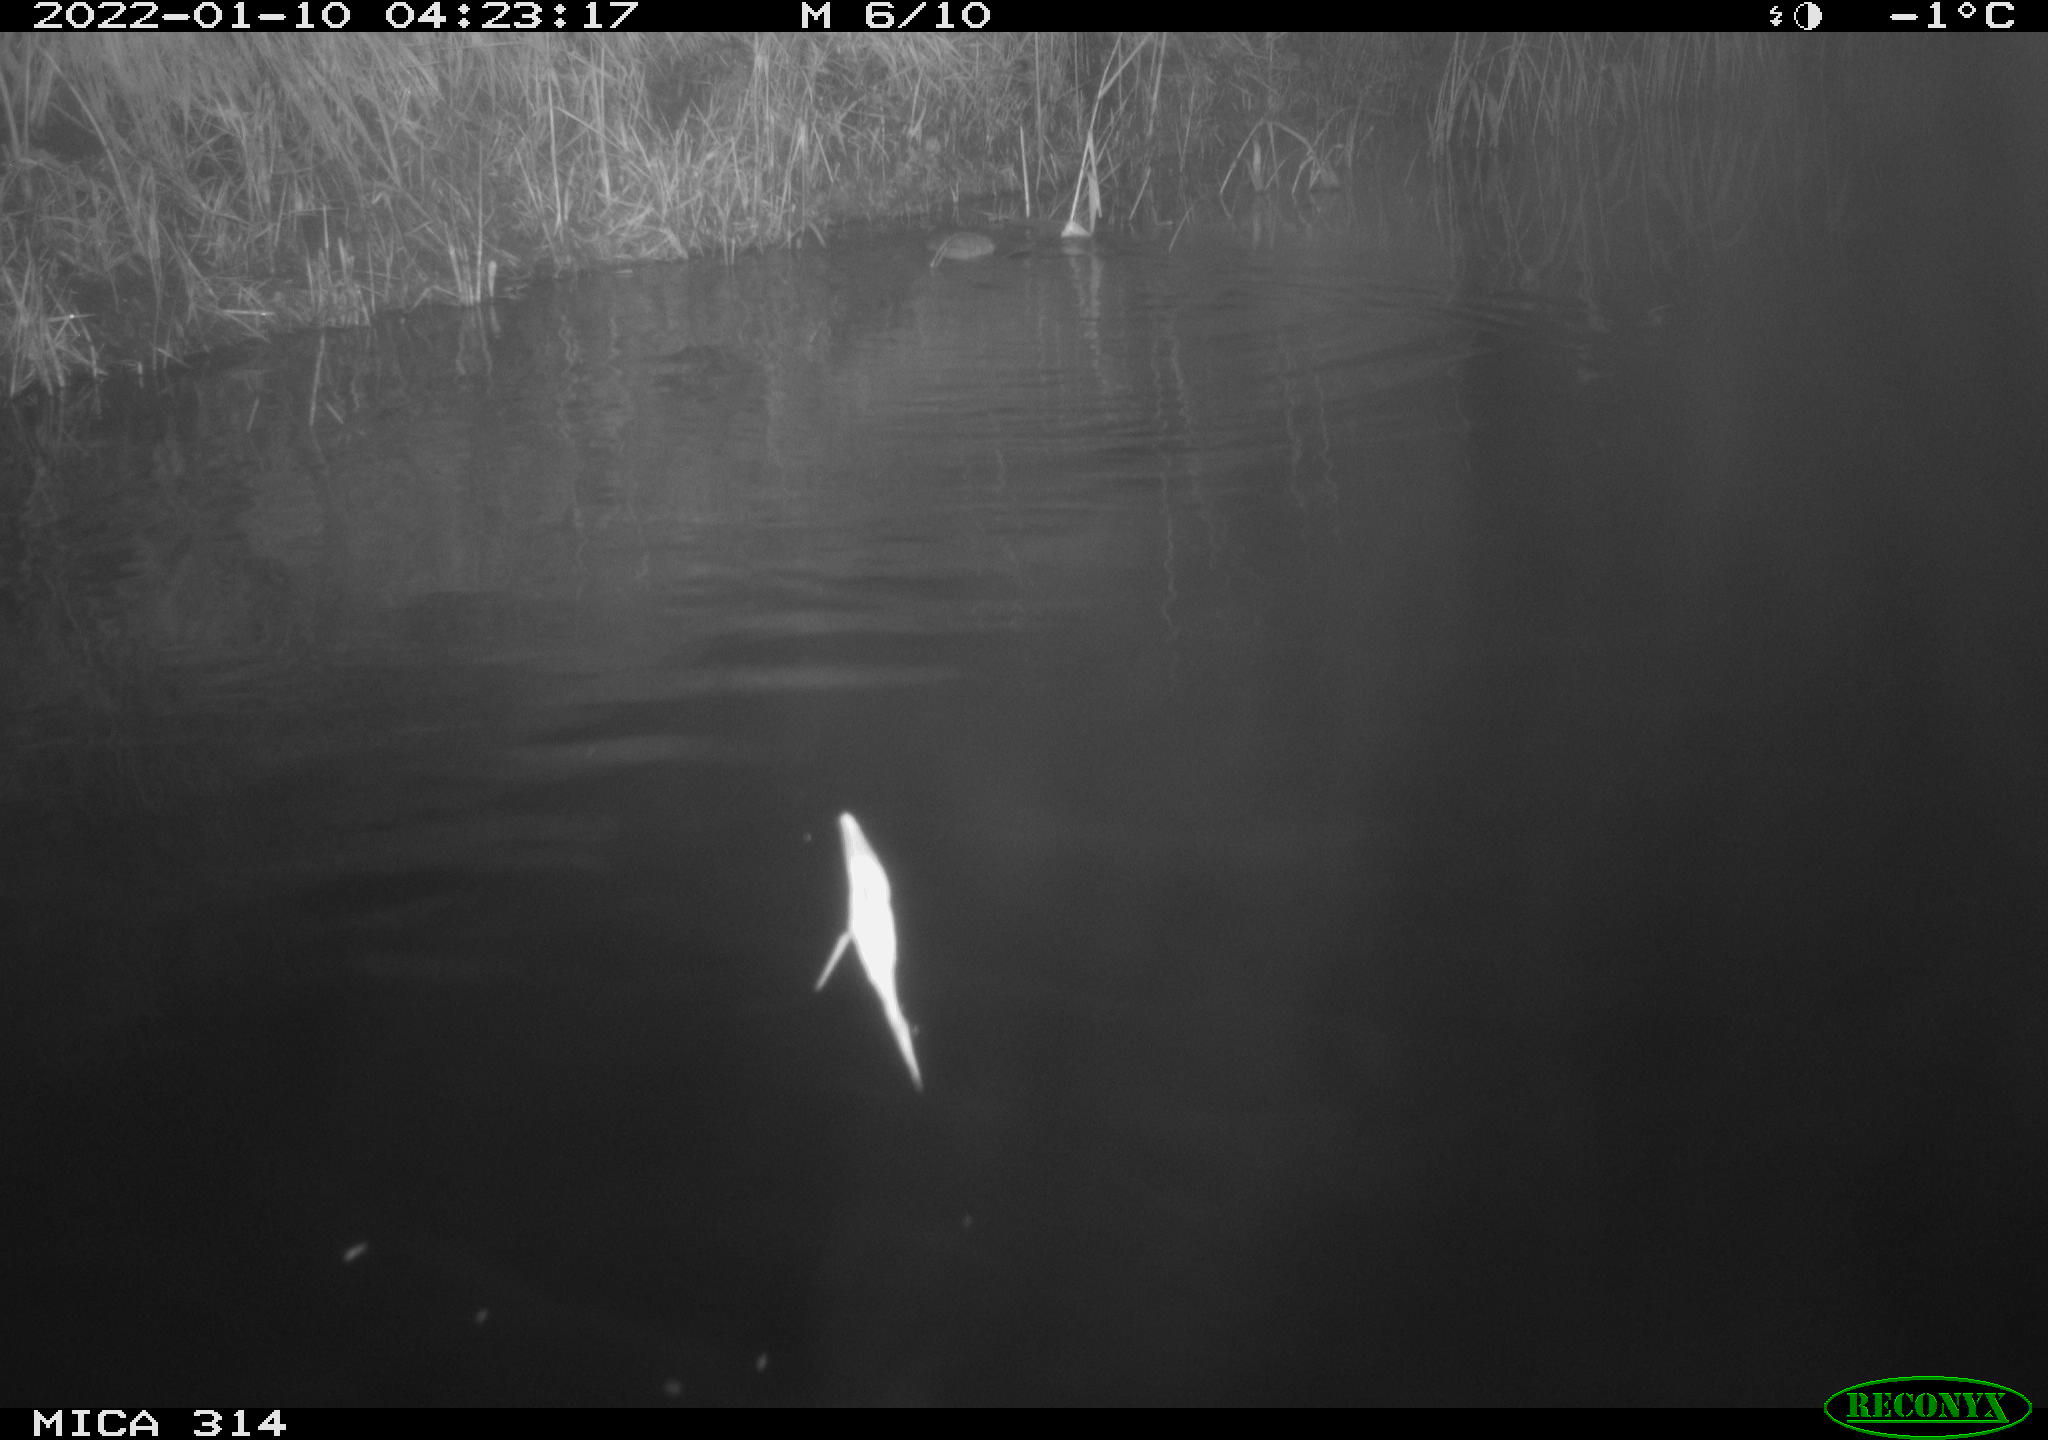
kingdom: Animalia
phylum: Chordata
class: Mammalia
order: Rodentia
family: Muridae
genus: Rattus
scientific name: Rattus norvegicus
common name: Brown rat
